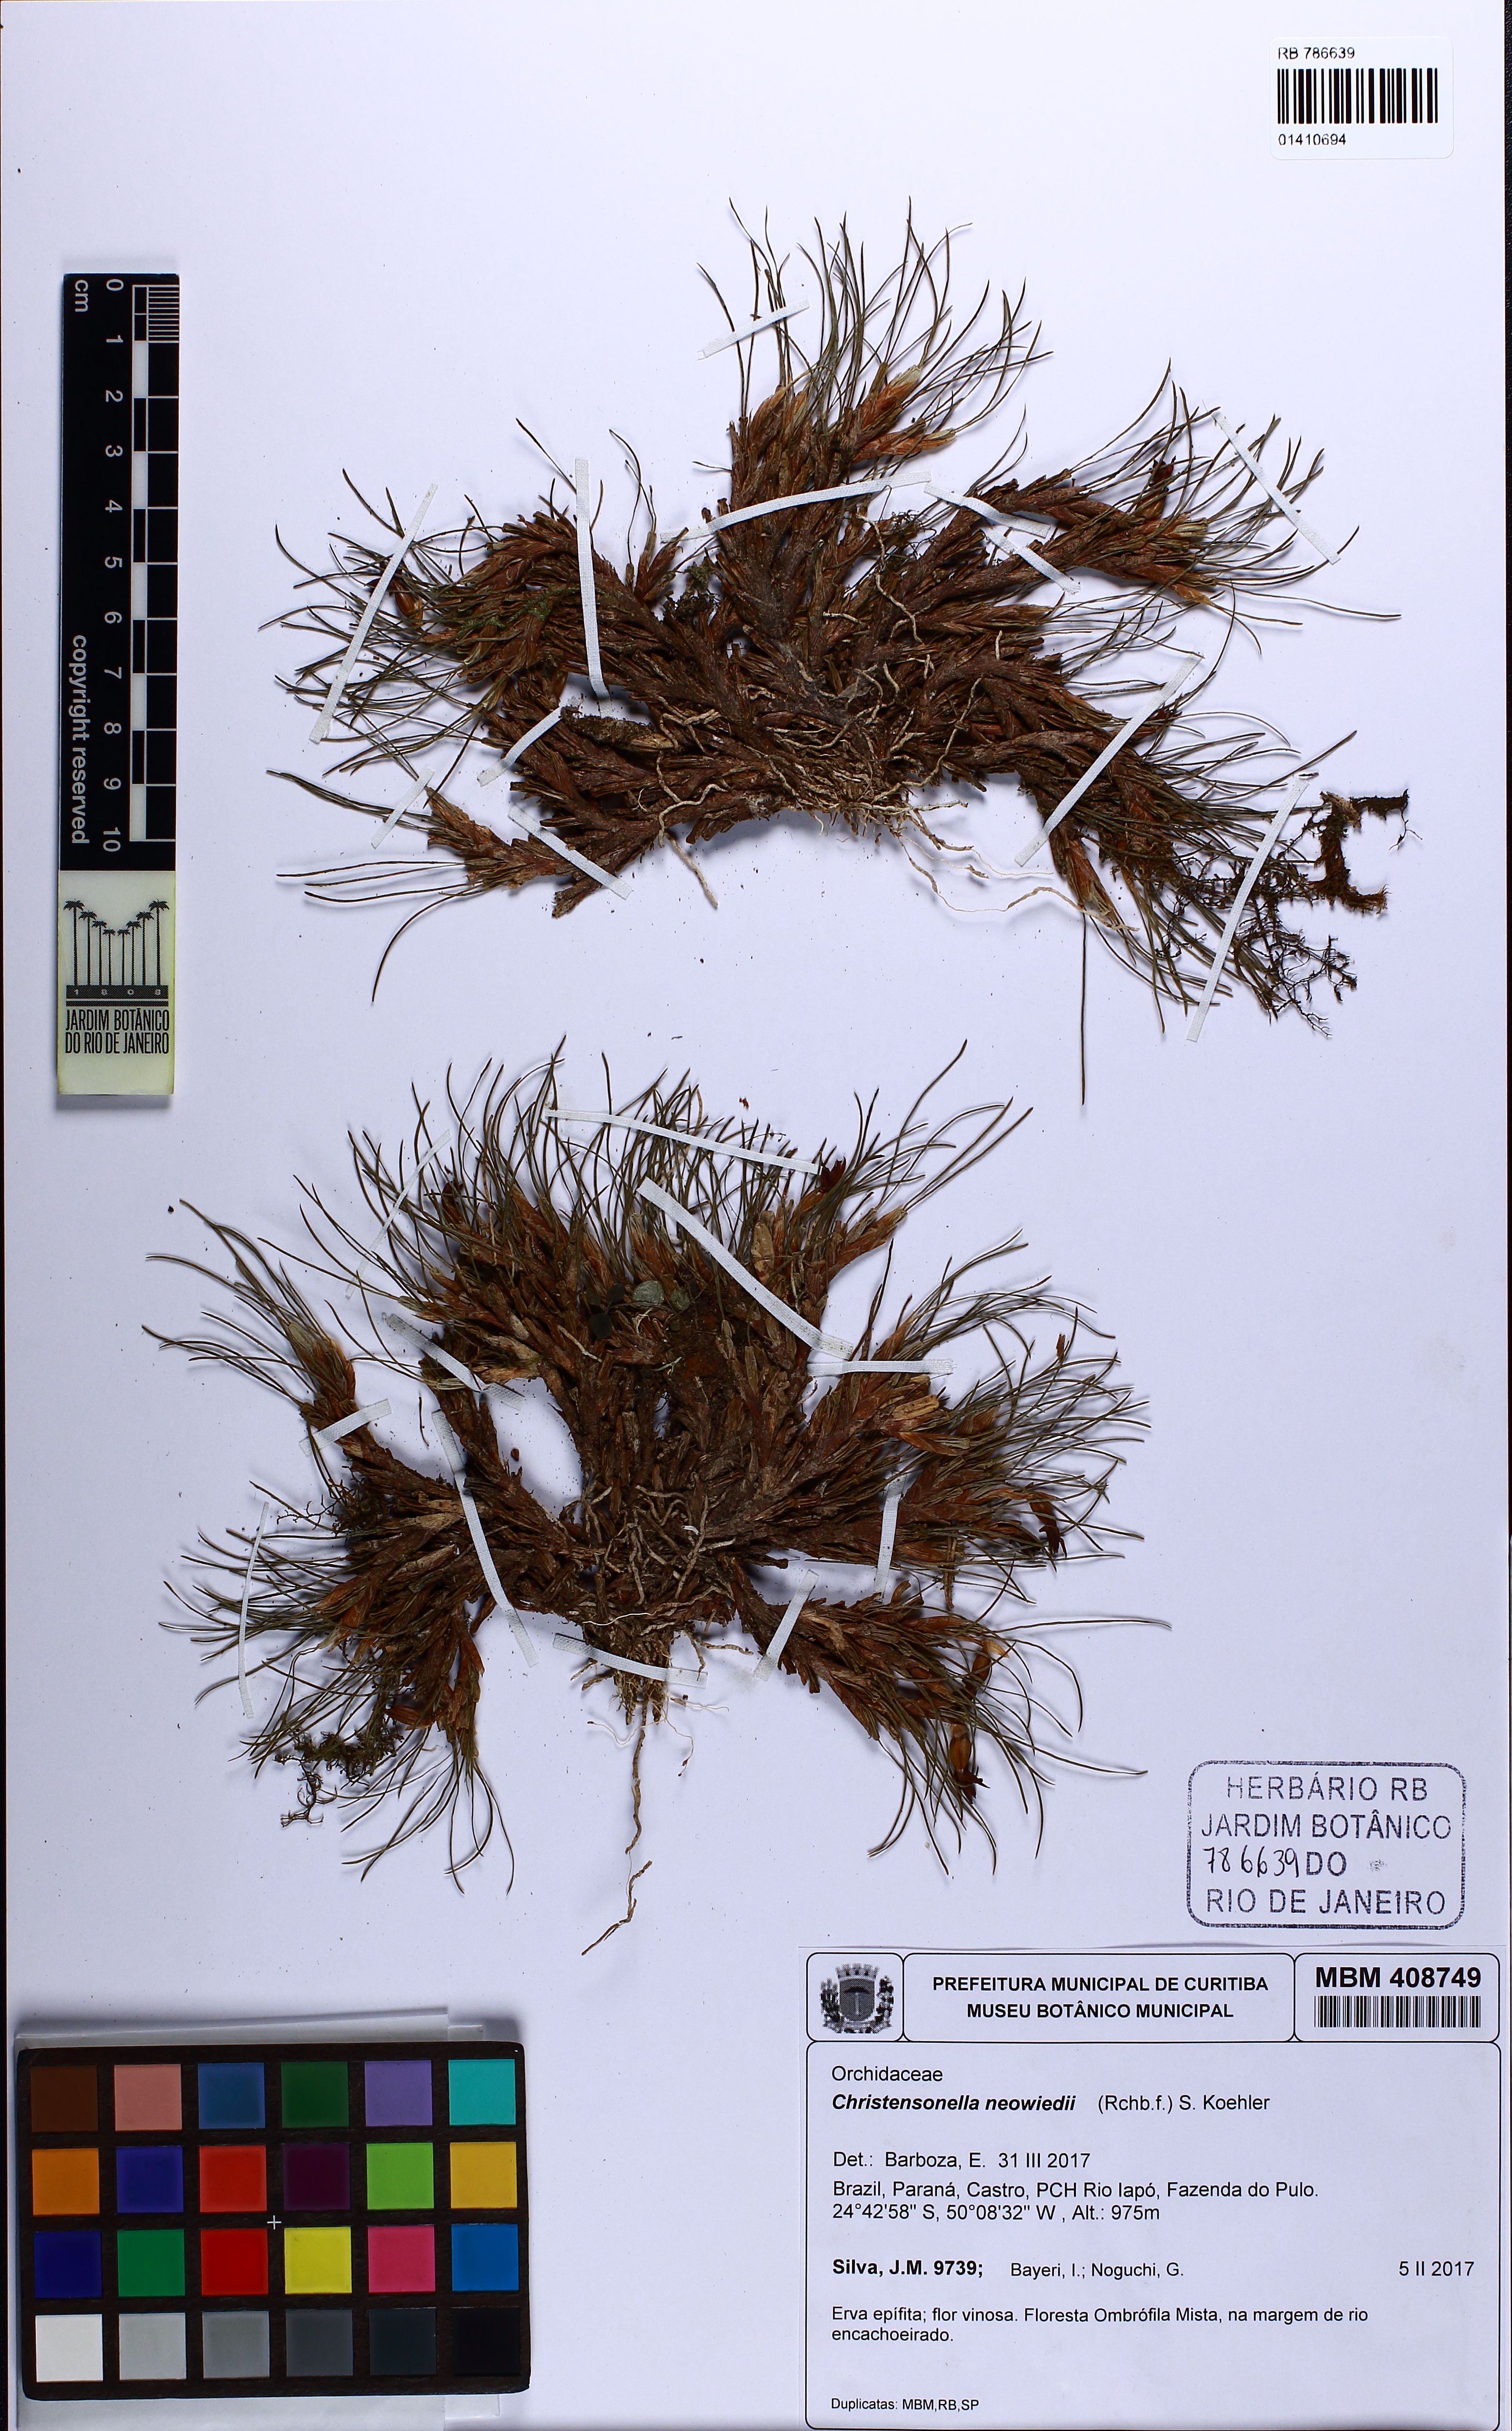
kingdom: Plantae
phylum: Tracheophyta
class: Liliopsida
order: Asparagales
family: Orchidaceae
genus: Maxillaria
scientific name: Maxillaria neowiedii
